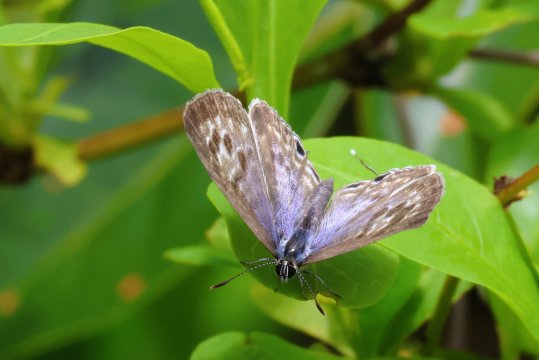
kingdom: Animalia
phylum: Arthropoda
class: Insecta
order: Lepidoptera
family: Lycaenidae
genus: Leptotes
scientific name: Leptotes pirithous
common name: Lang's Short-tailed Blue
